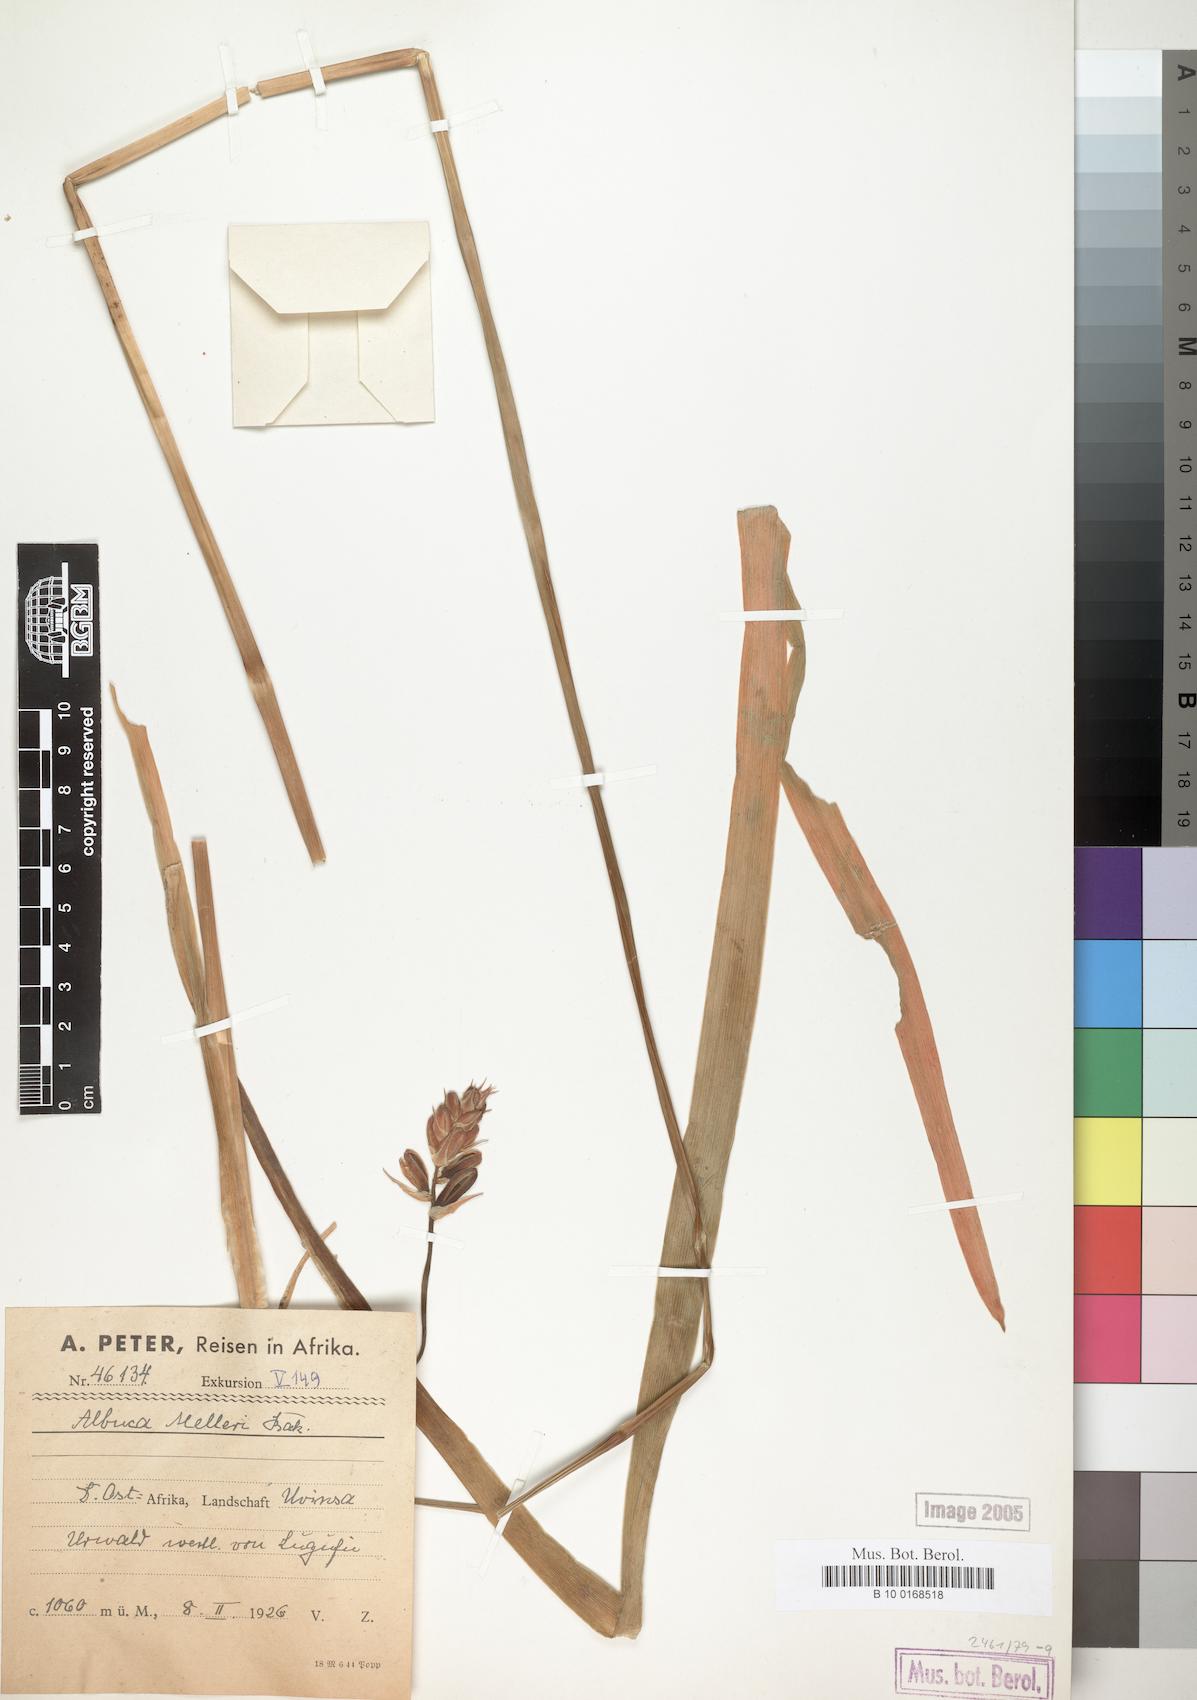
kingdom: Plantae
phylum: Tracheophyta
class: Liliopsida
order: Asparagales
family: Asparagaceae
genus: Albuca
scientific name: Albuca abyssinica
